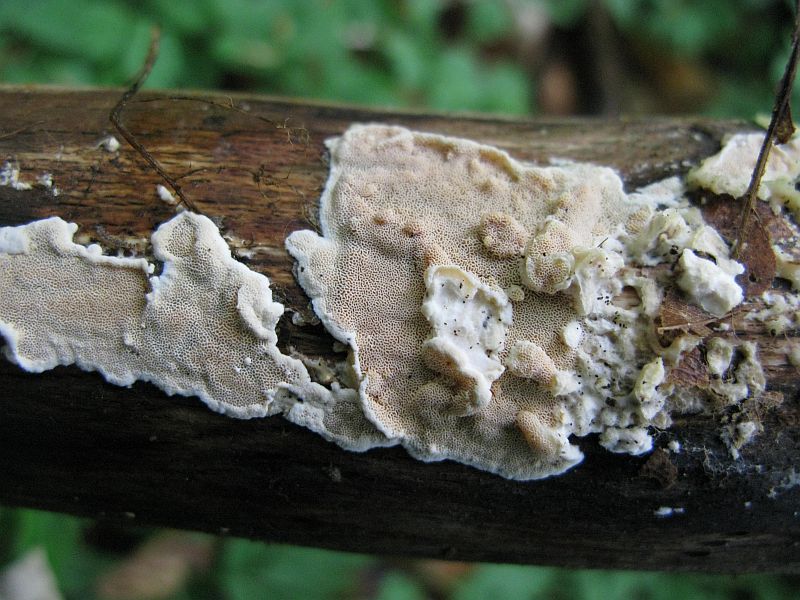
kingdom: Fungi
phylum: Basidiomycota
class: Agaricomycetes
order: Polyporales
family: Steccherinaceae
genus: Junghuhnia
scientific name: Junghuhnia nitida
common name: almindelig skønporesvamp
